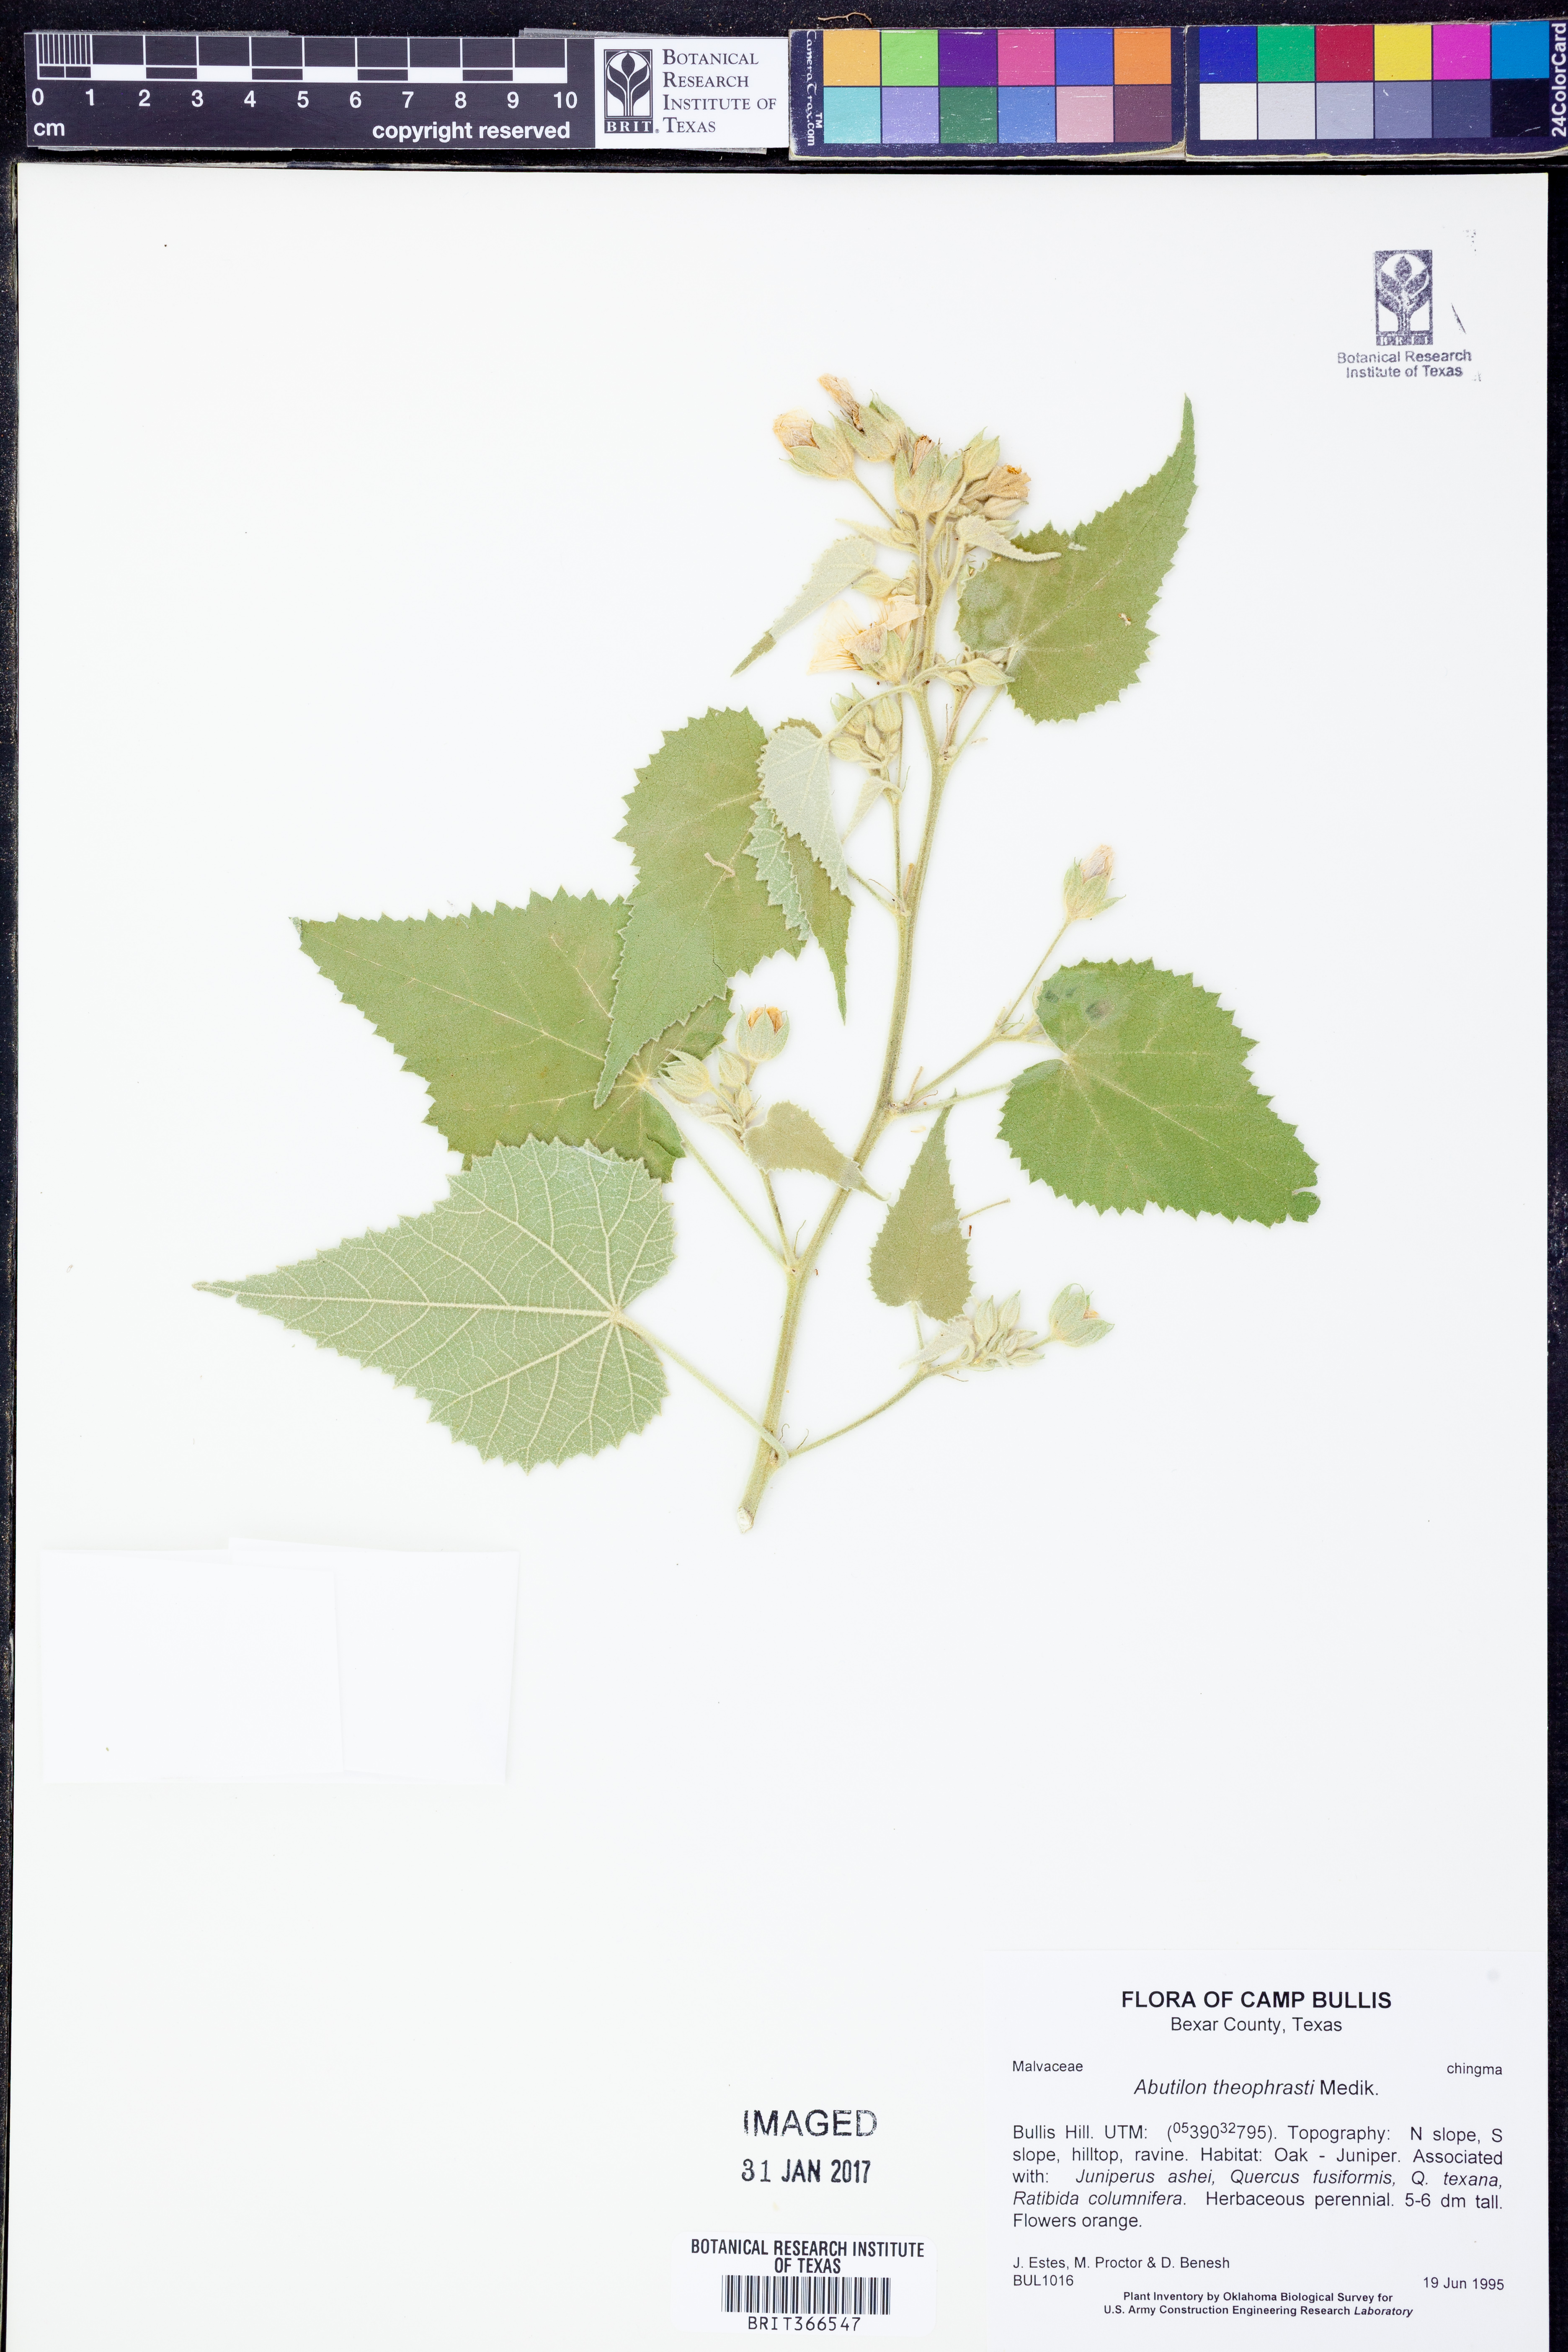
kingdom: Plantae
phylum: Tracheophyta
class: Magnoliopsida
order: Malvales
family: Malvaceae
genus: Abutilon
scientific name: Abutilon theophrasti
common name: Velvetleaf
